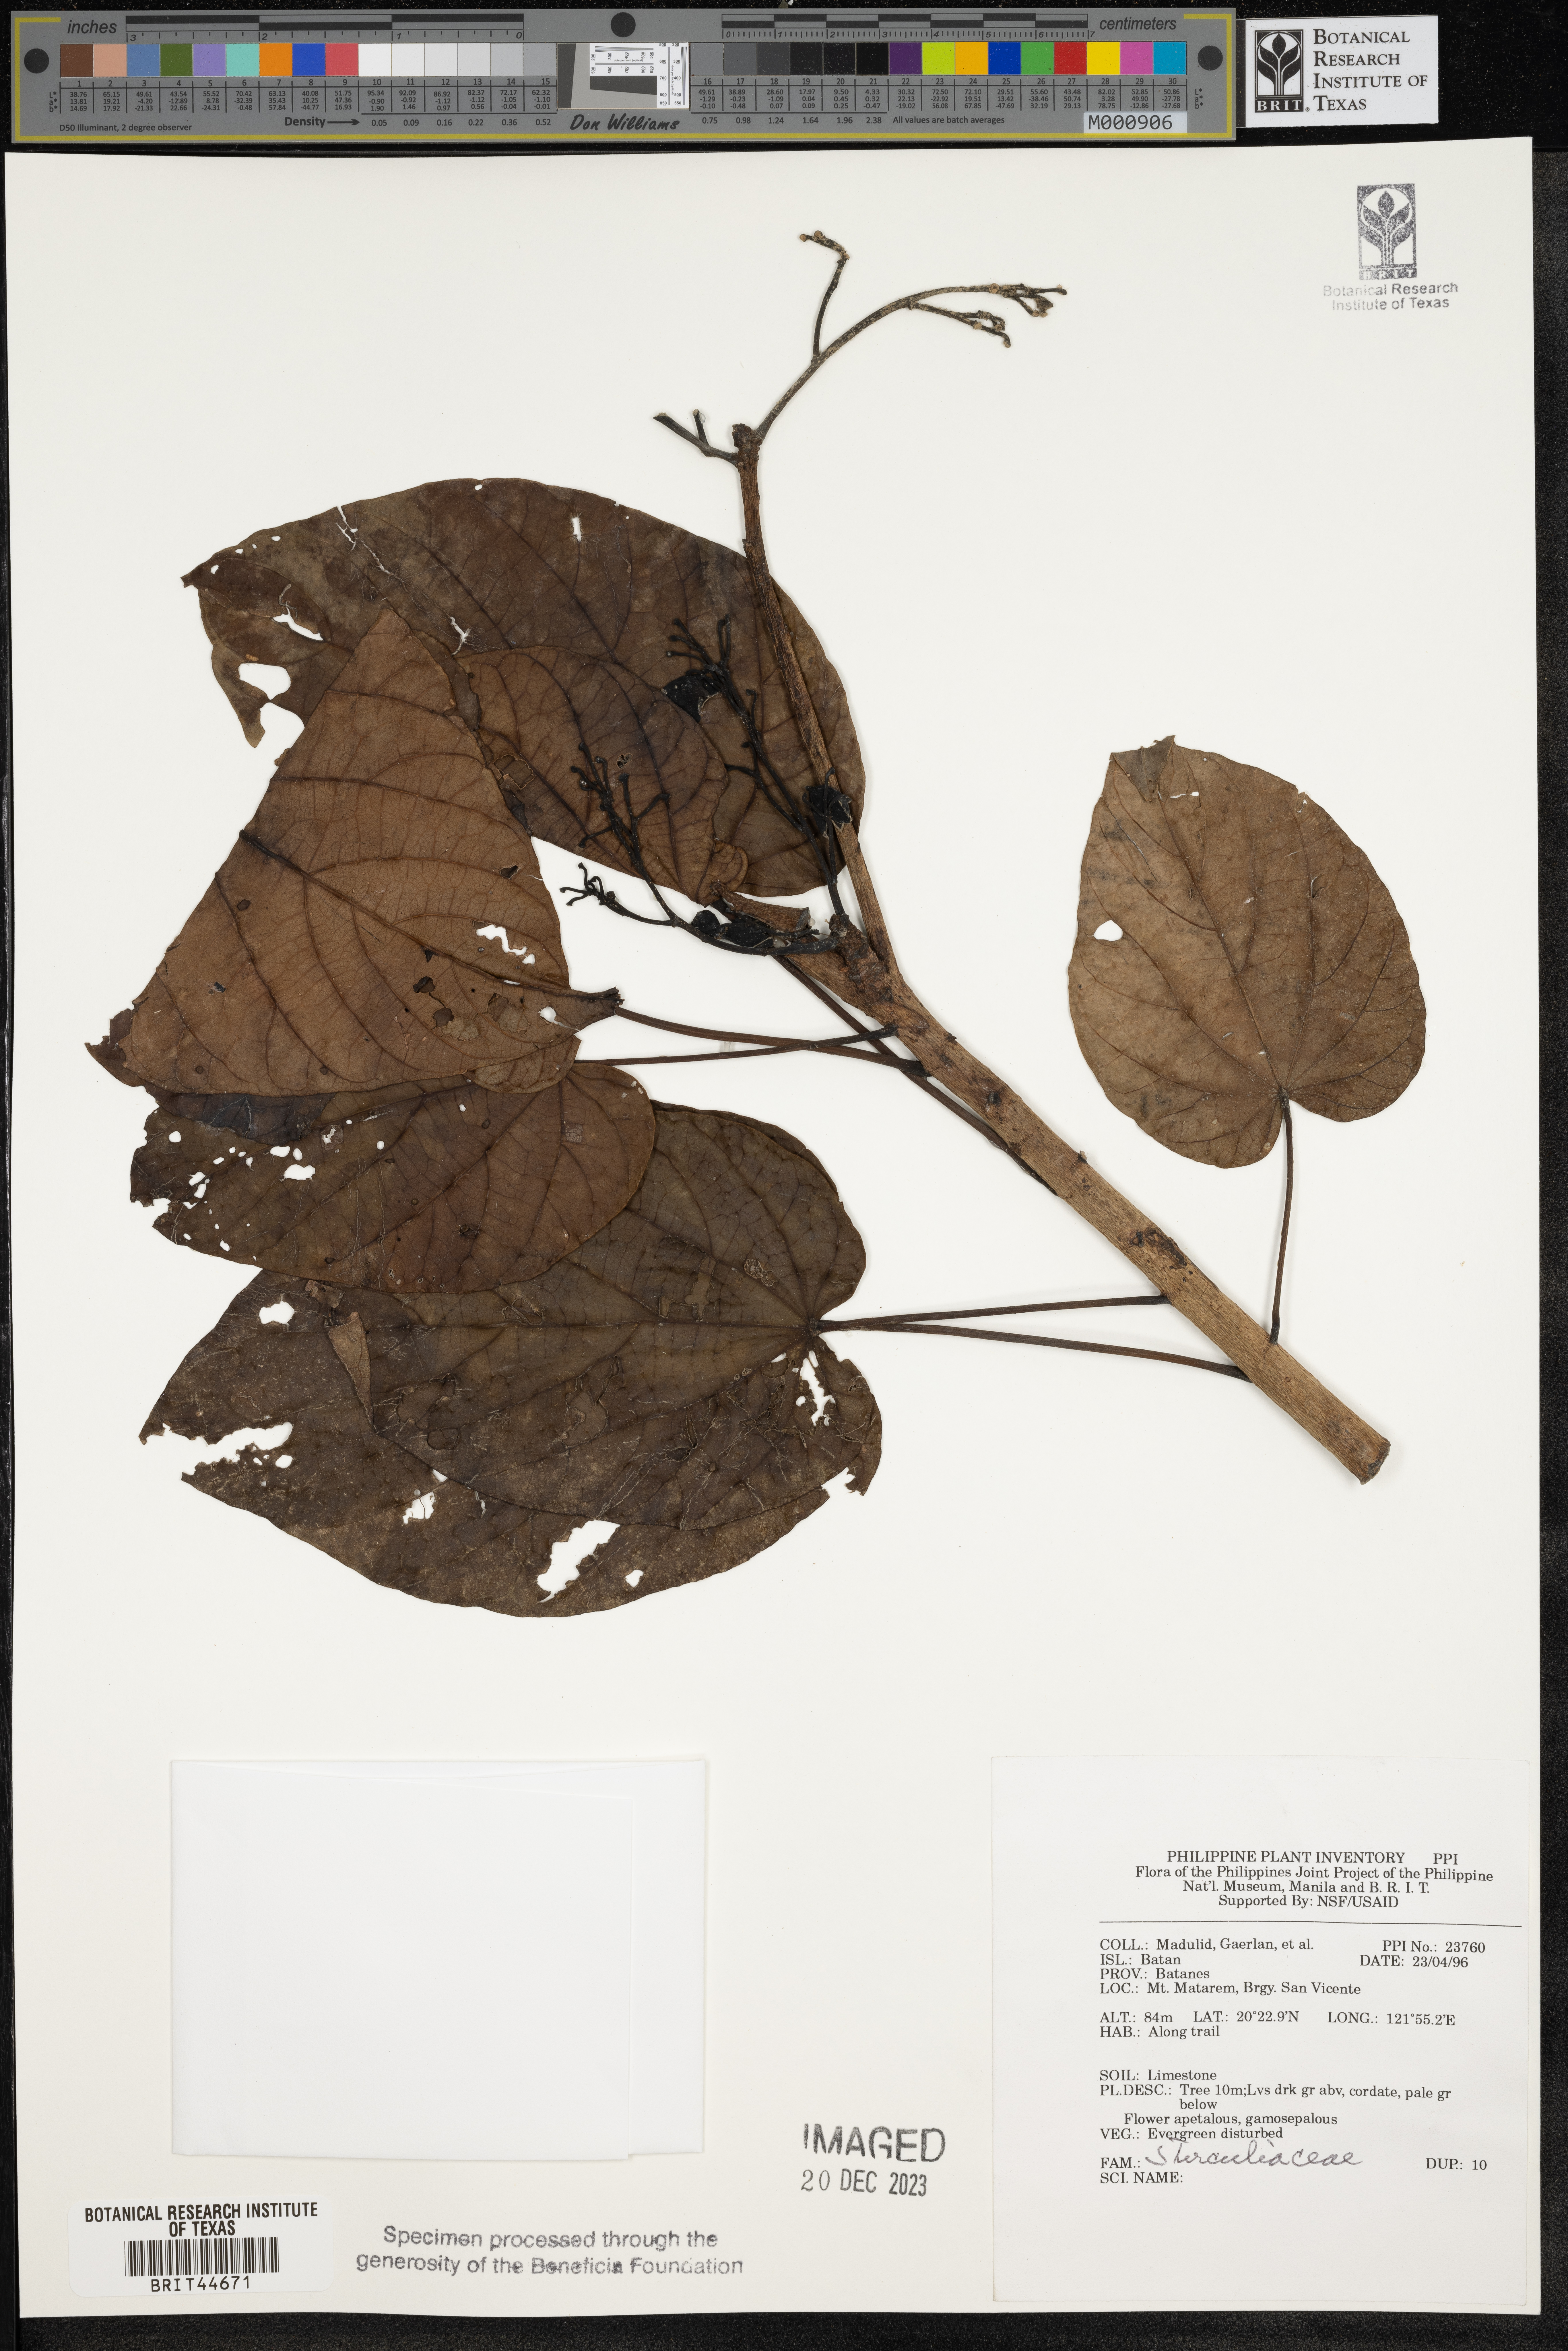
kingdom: Plantae
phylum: Tracheophyta
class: Magnoliopsida
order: Malvales
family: Sterculiaceae
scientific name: Sterculiaceae
